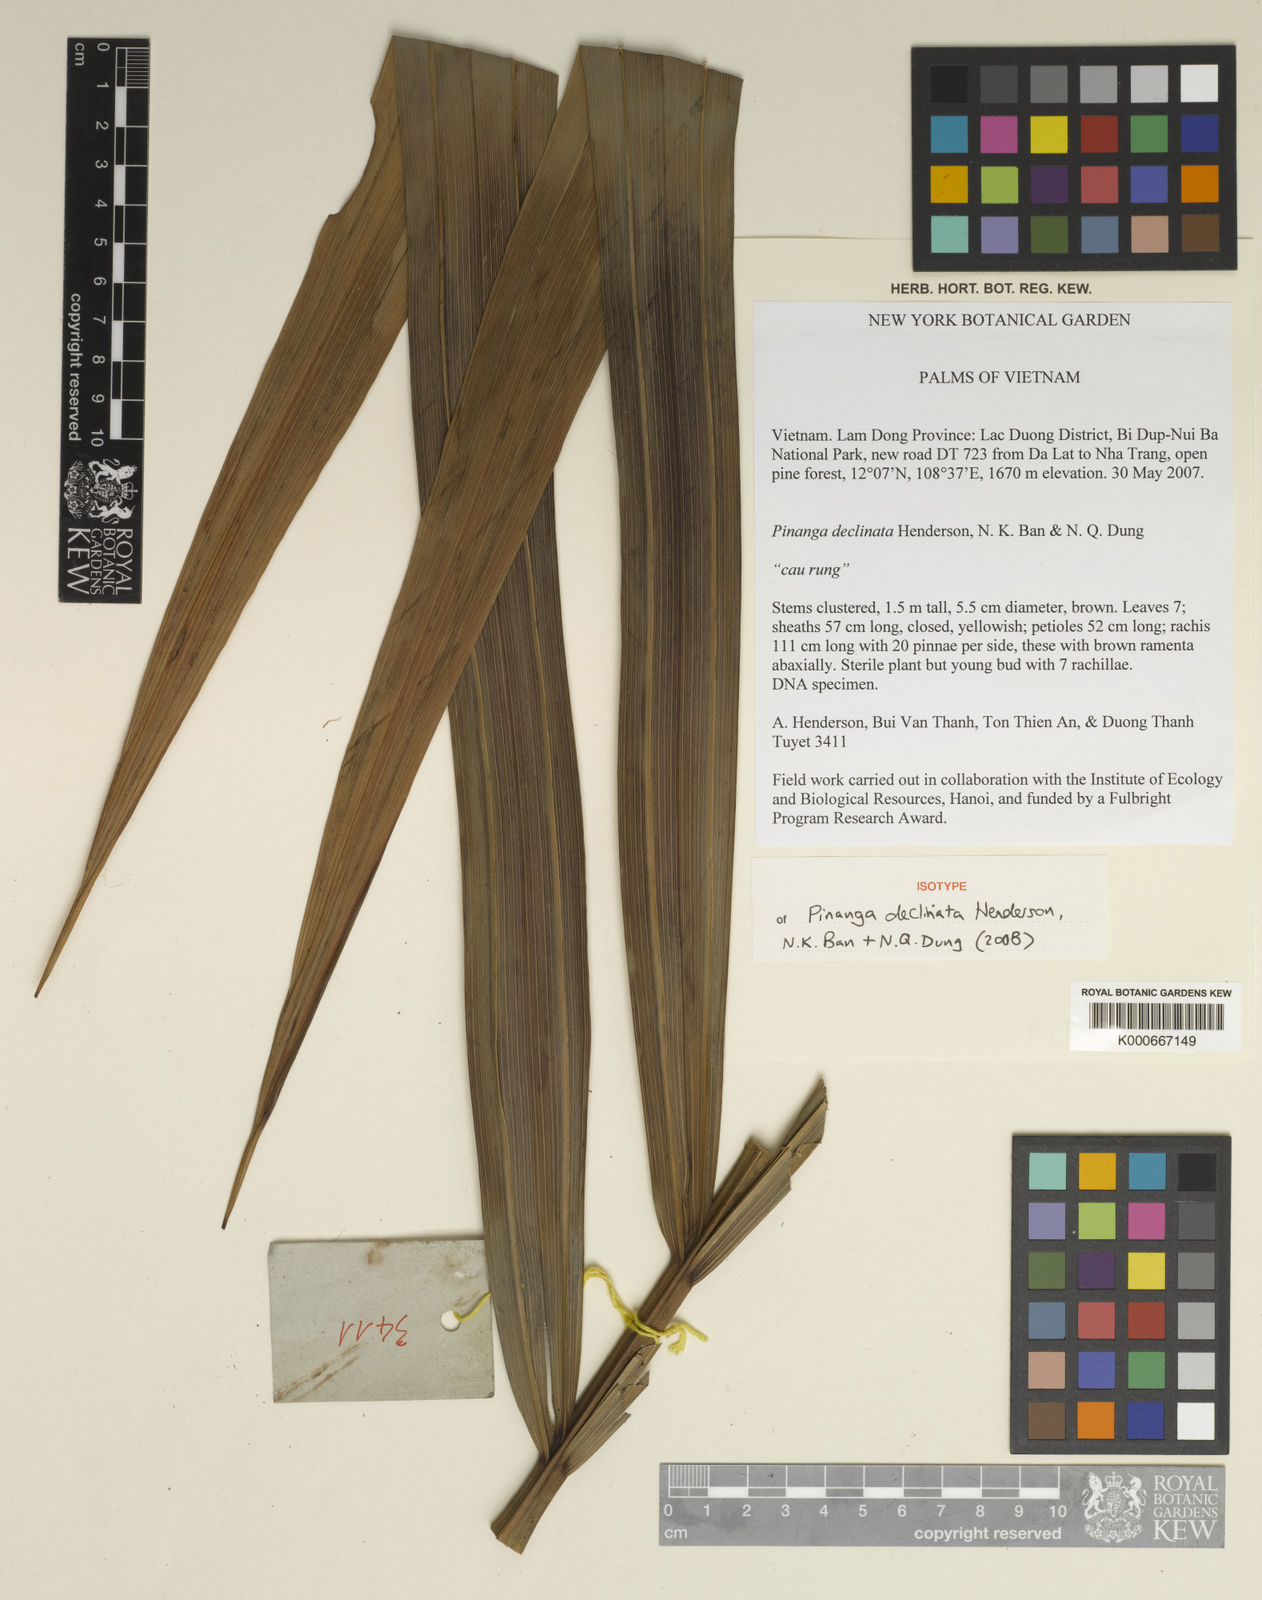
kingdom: Plantae
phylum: Tracheophyta
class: Liliopsida
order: Arecales
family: Arecaceae
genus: Pinanga
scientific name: Pinanga declinata
